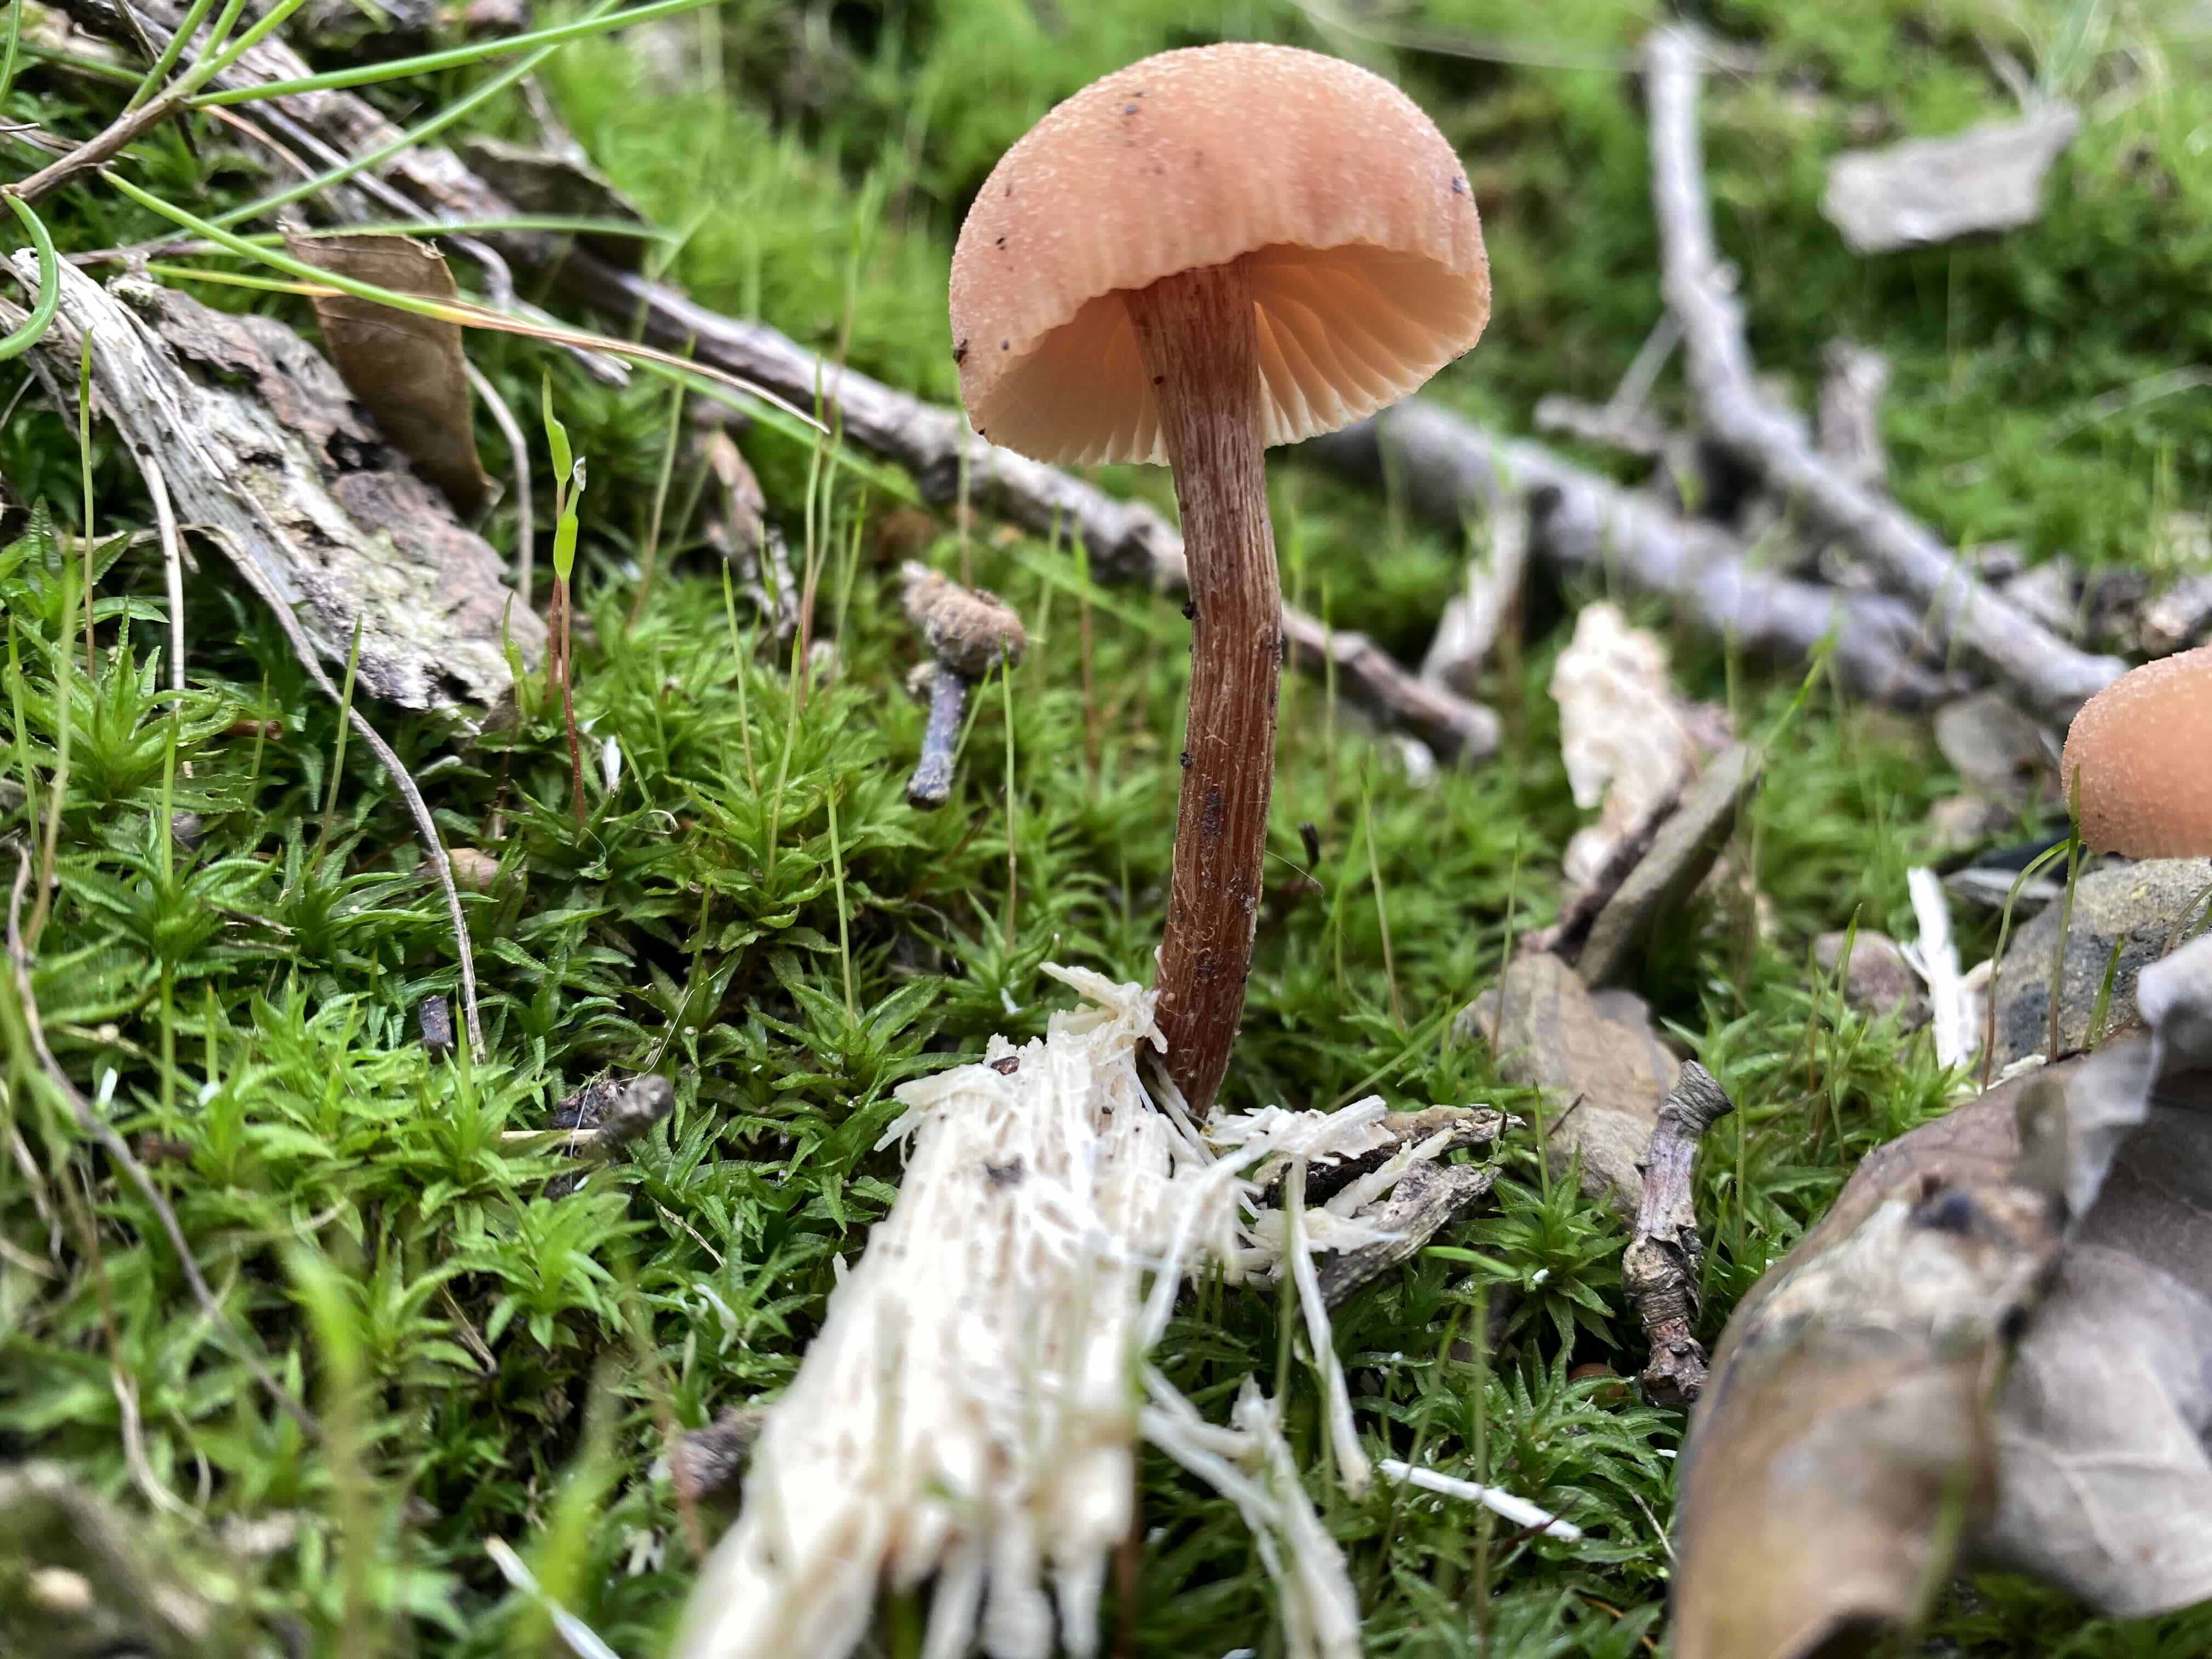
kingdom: Fungi
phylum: Basidiomycota
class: Agaricomycetes
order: Agaricales
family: Hydnangiaceae
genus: Laccaria
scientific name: Laccaria laccata
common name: rød ametysthat
